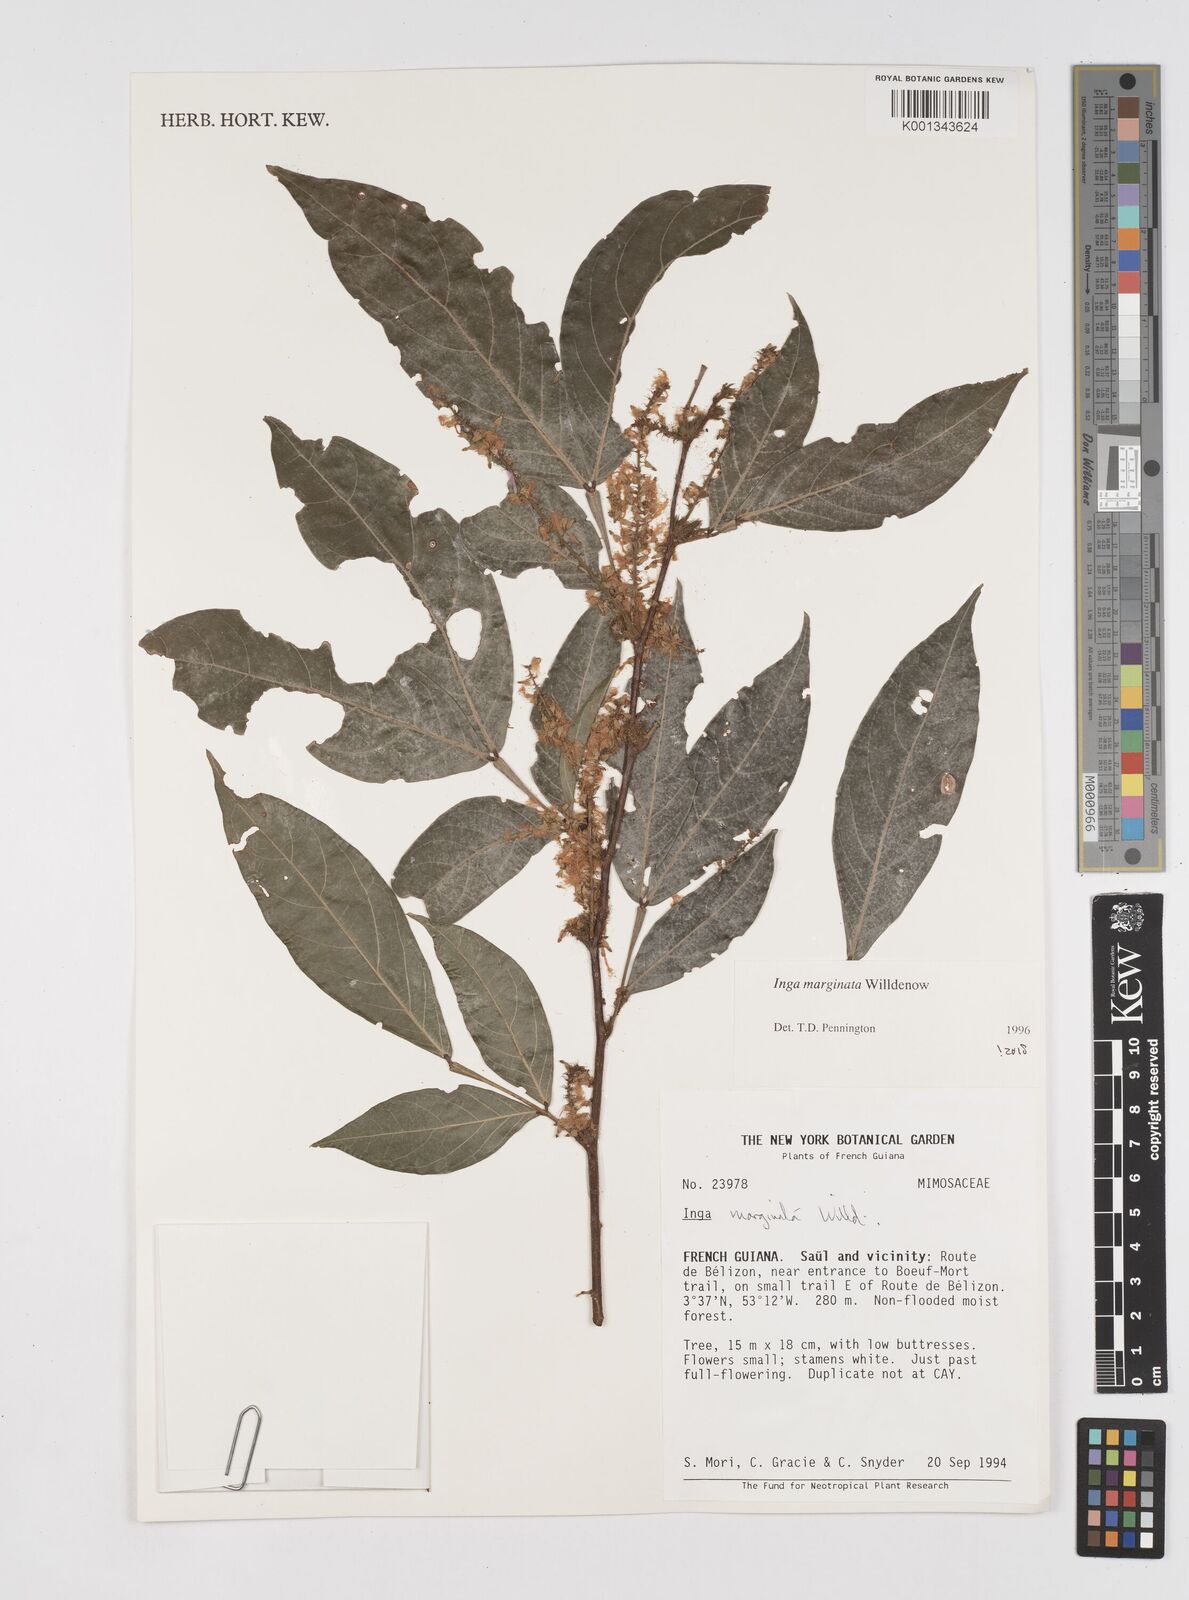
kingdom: Plantae
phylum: Tracheophyta
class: Magnoliopsida
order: Fabales
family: Fabaceae
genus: Inga
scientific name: Inga marginata
